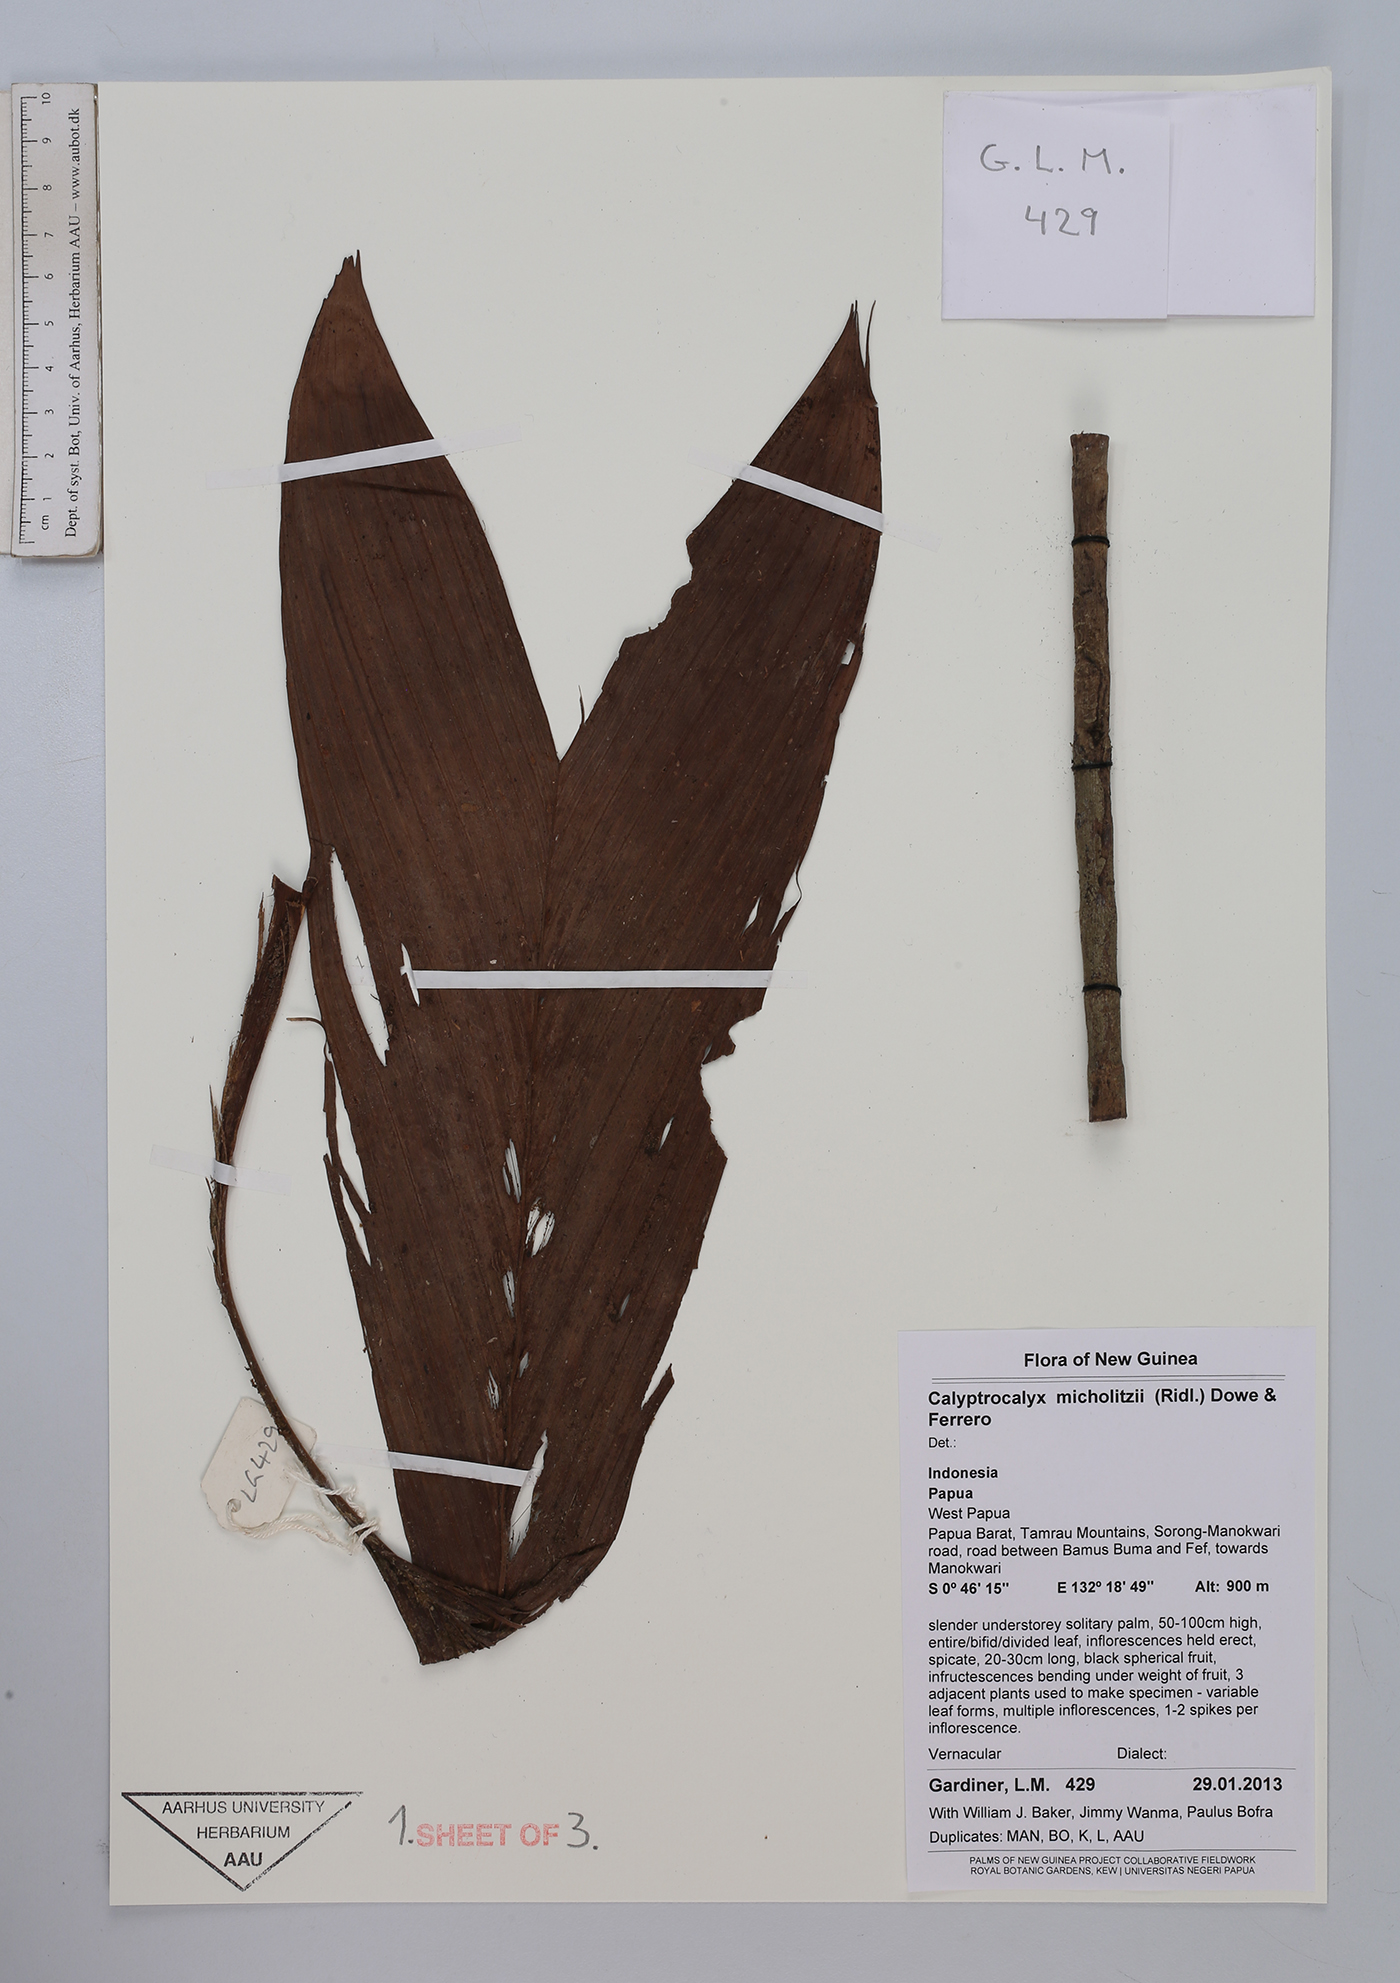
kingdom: Plantae
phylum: Tracheophyta
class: Liliopsida
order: Arecales
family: Arecaceae
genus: Calyptrocalyx
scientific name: Calyptrocalyx micholitzii
